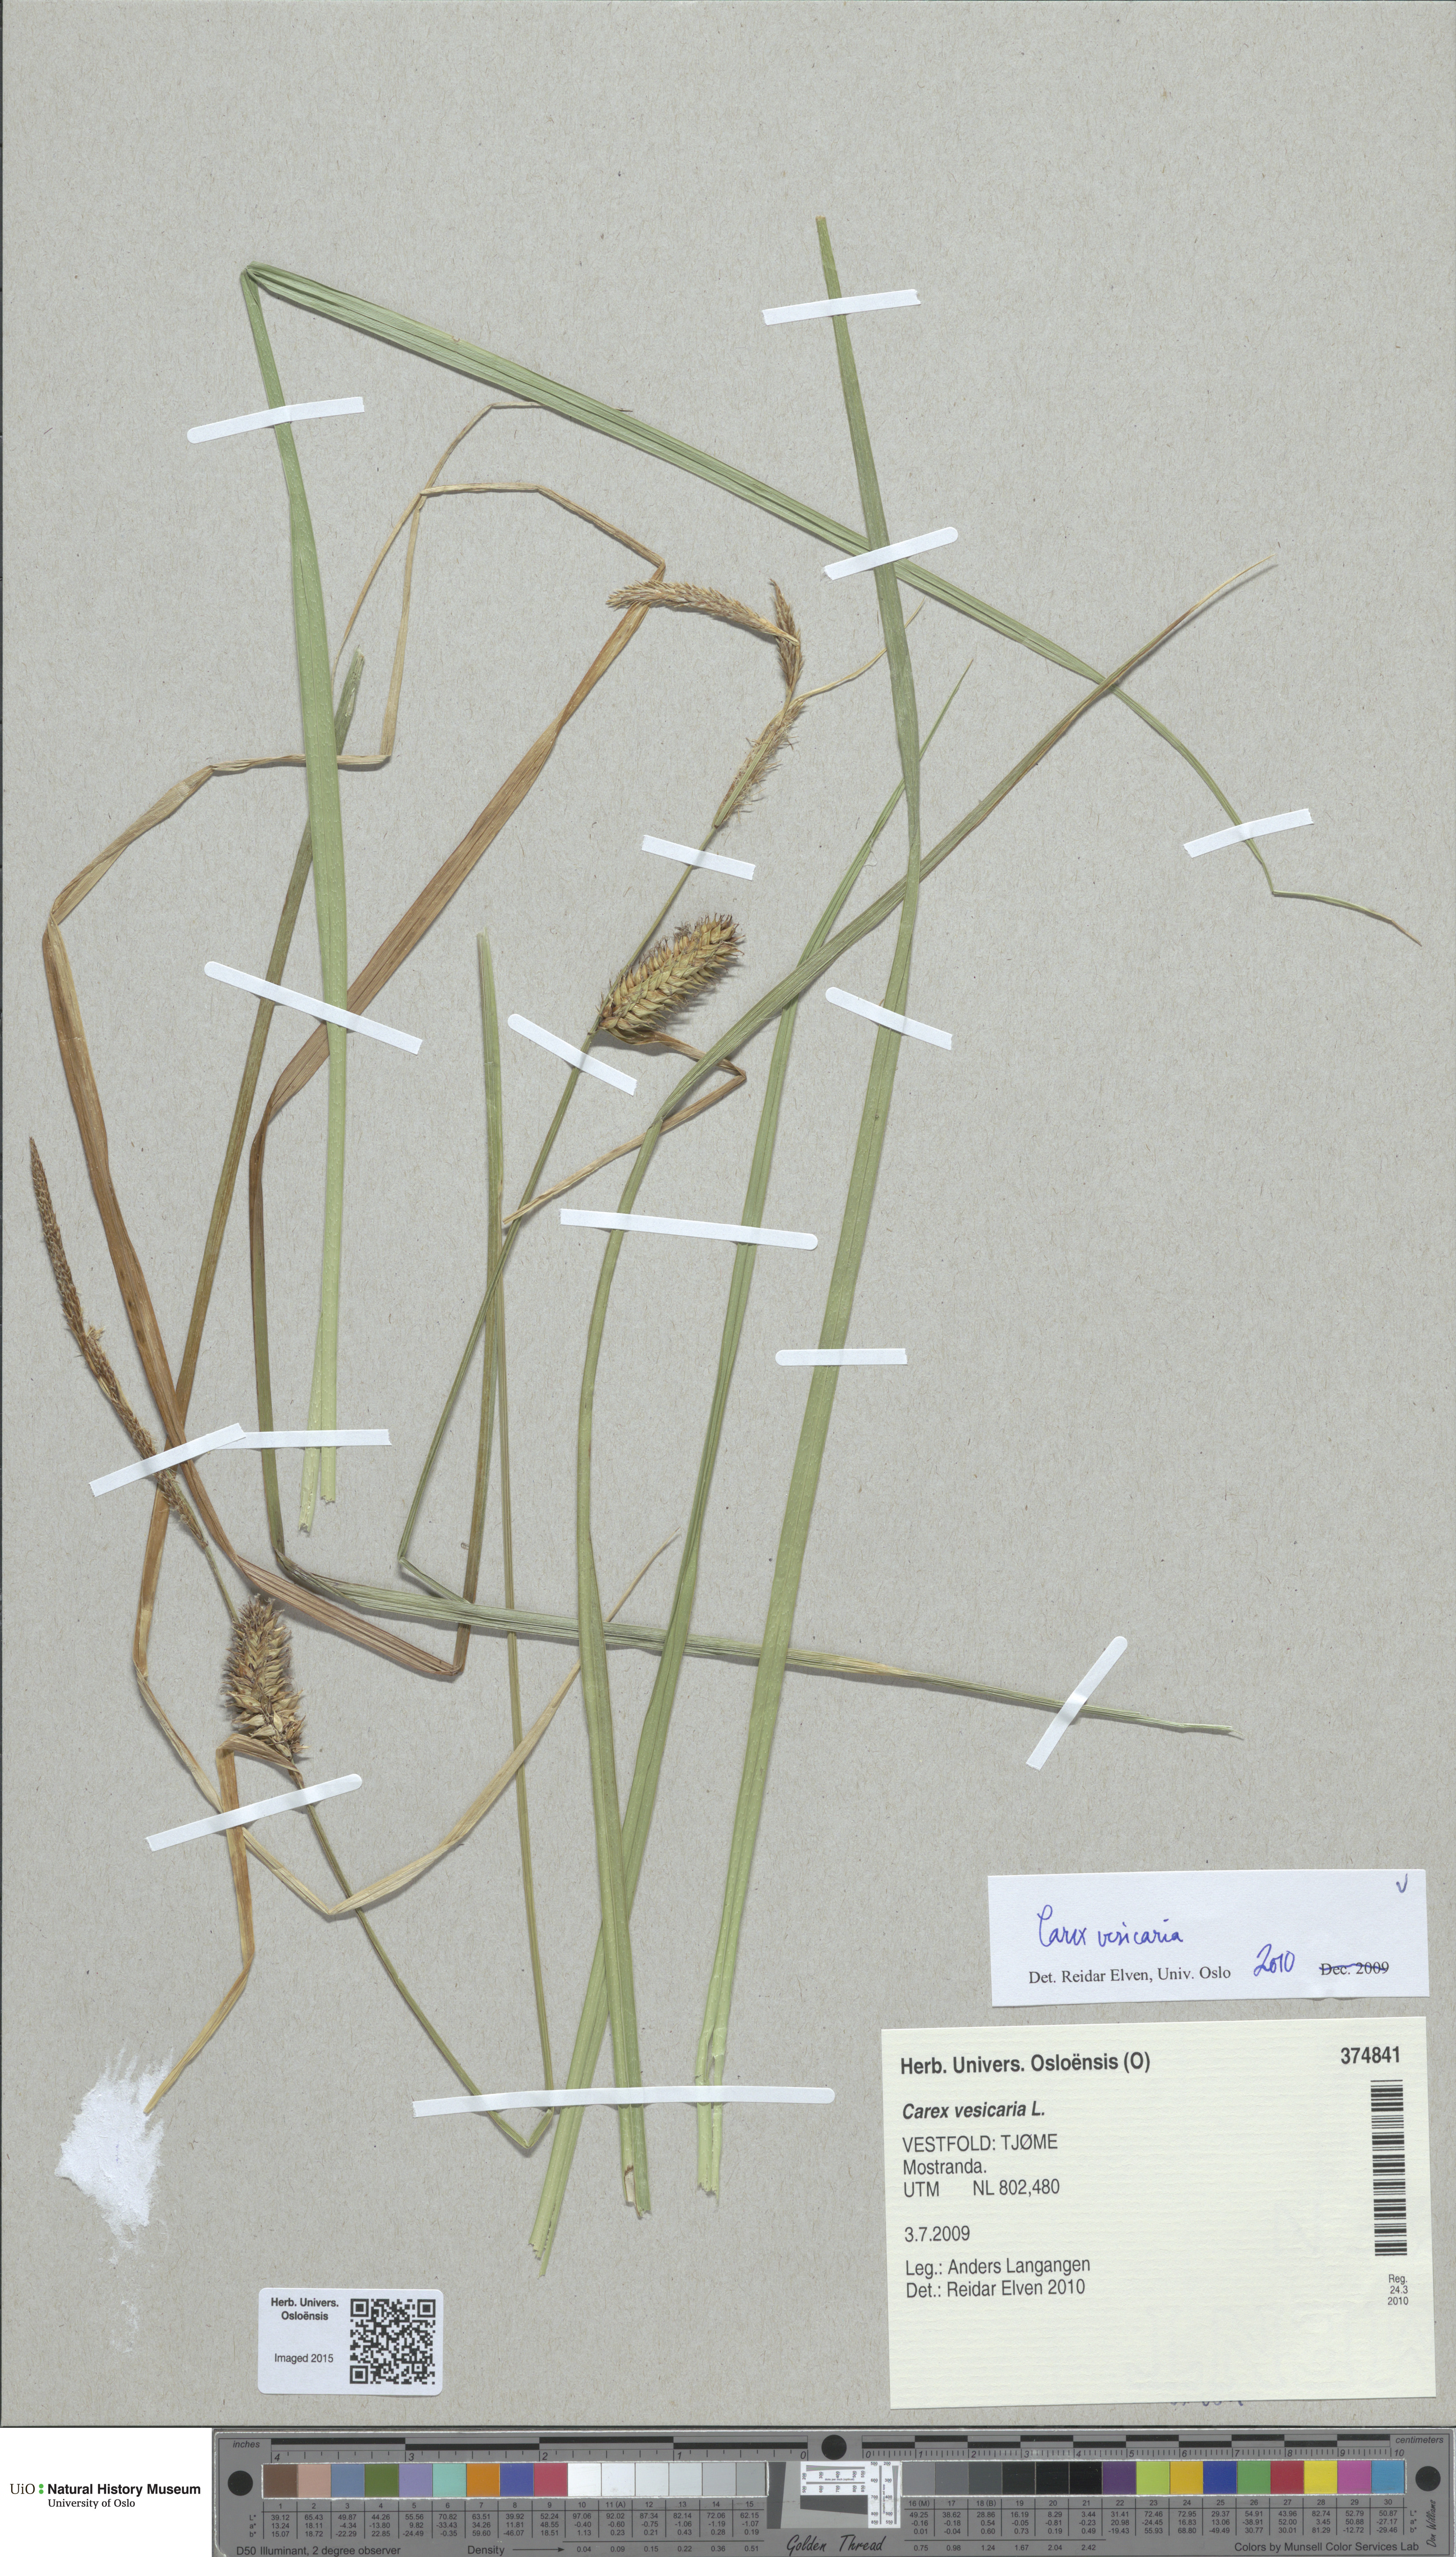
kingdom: Plantae
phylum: Tracheophyta
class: Liliopsida
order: Poales
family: Cyperaceae
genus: Carex
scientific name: Carex vesicaria
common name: Bladder-sedge
